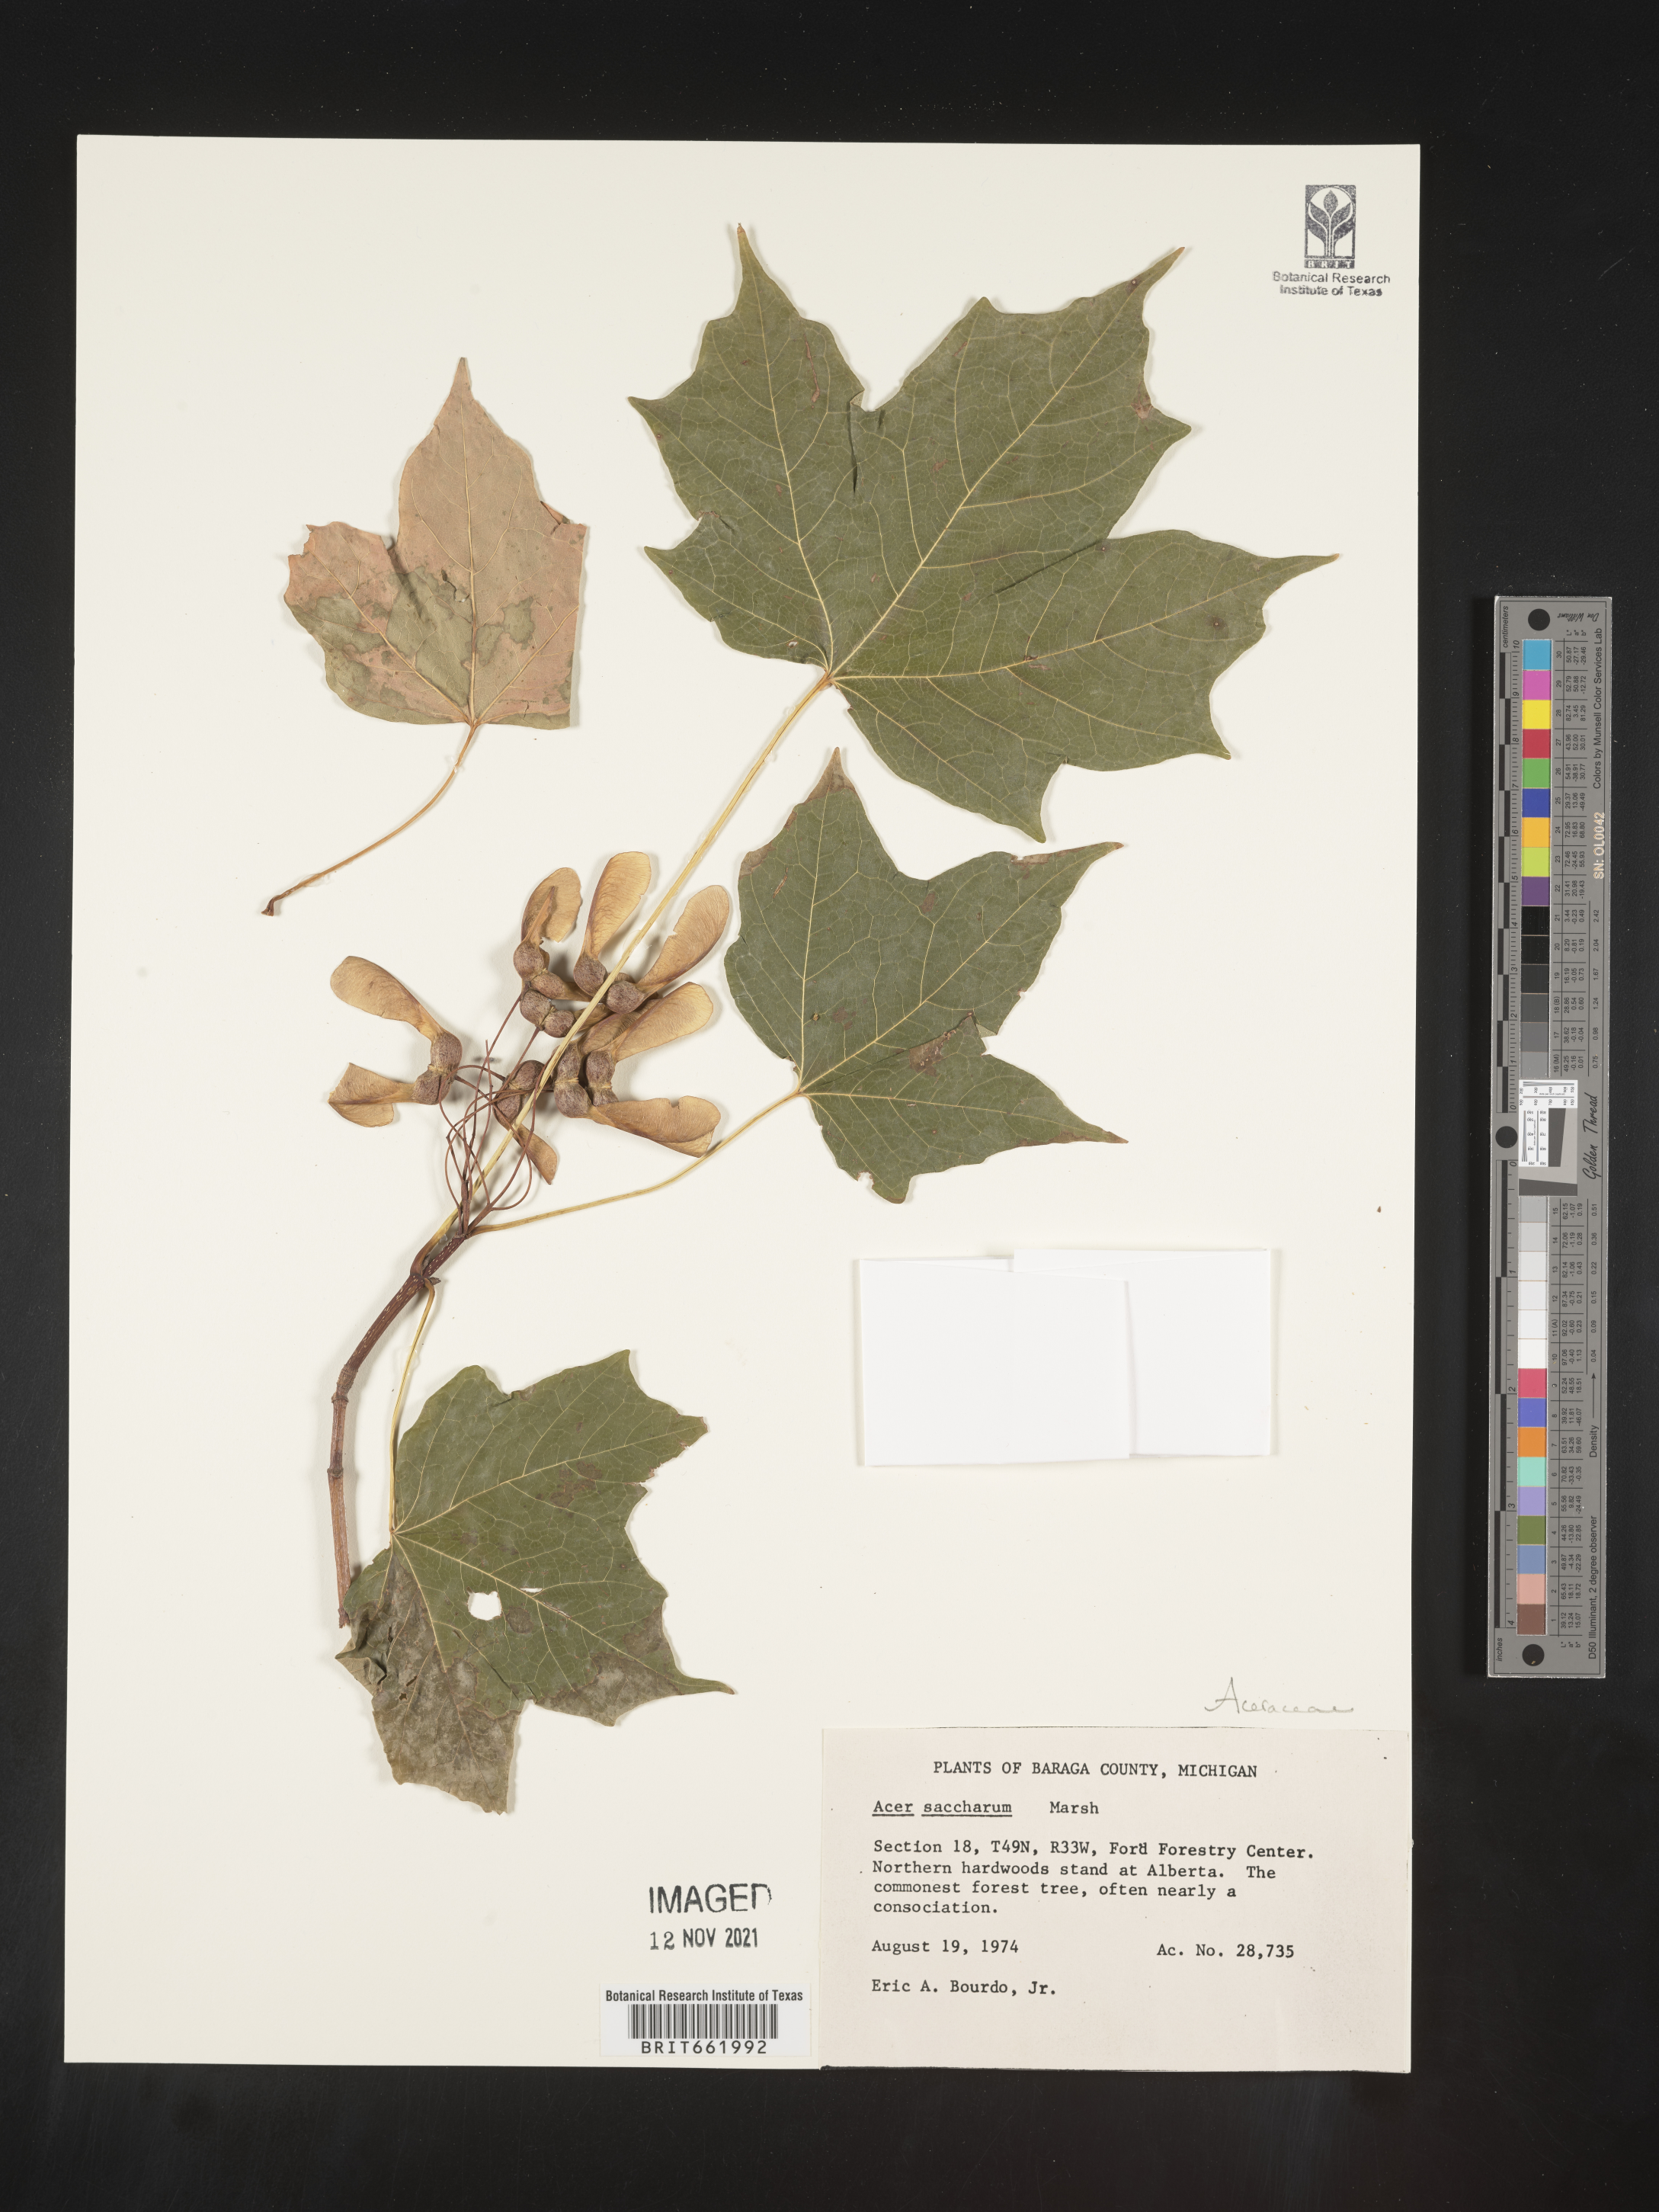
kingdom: Plantae
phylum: Tracheophyta
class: Magnoliopsida
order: Sapindales
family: Sapindaceae
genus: Acer
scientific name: Acer saccharum
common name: Sugar maple
